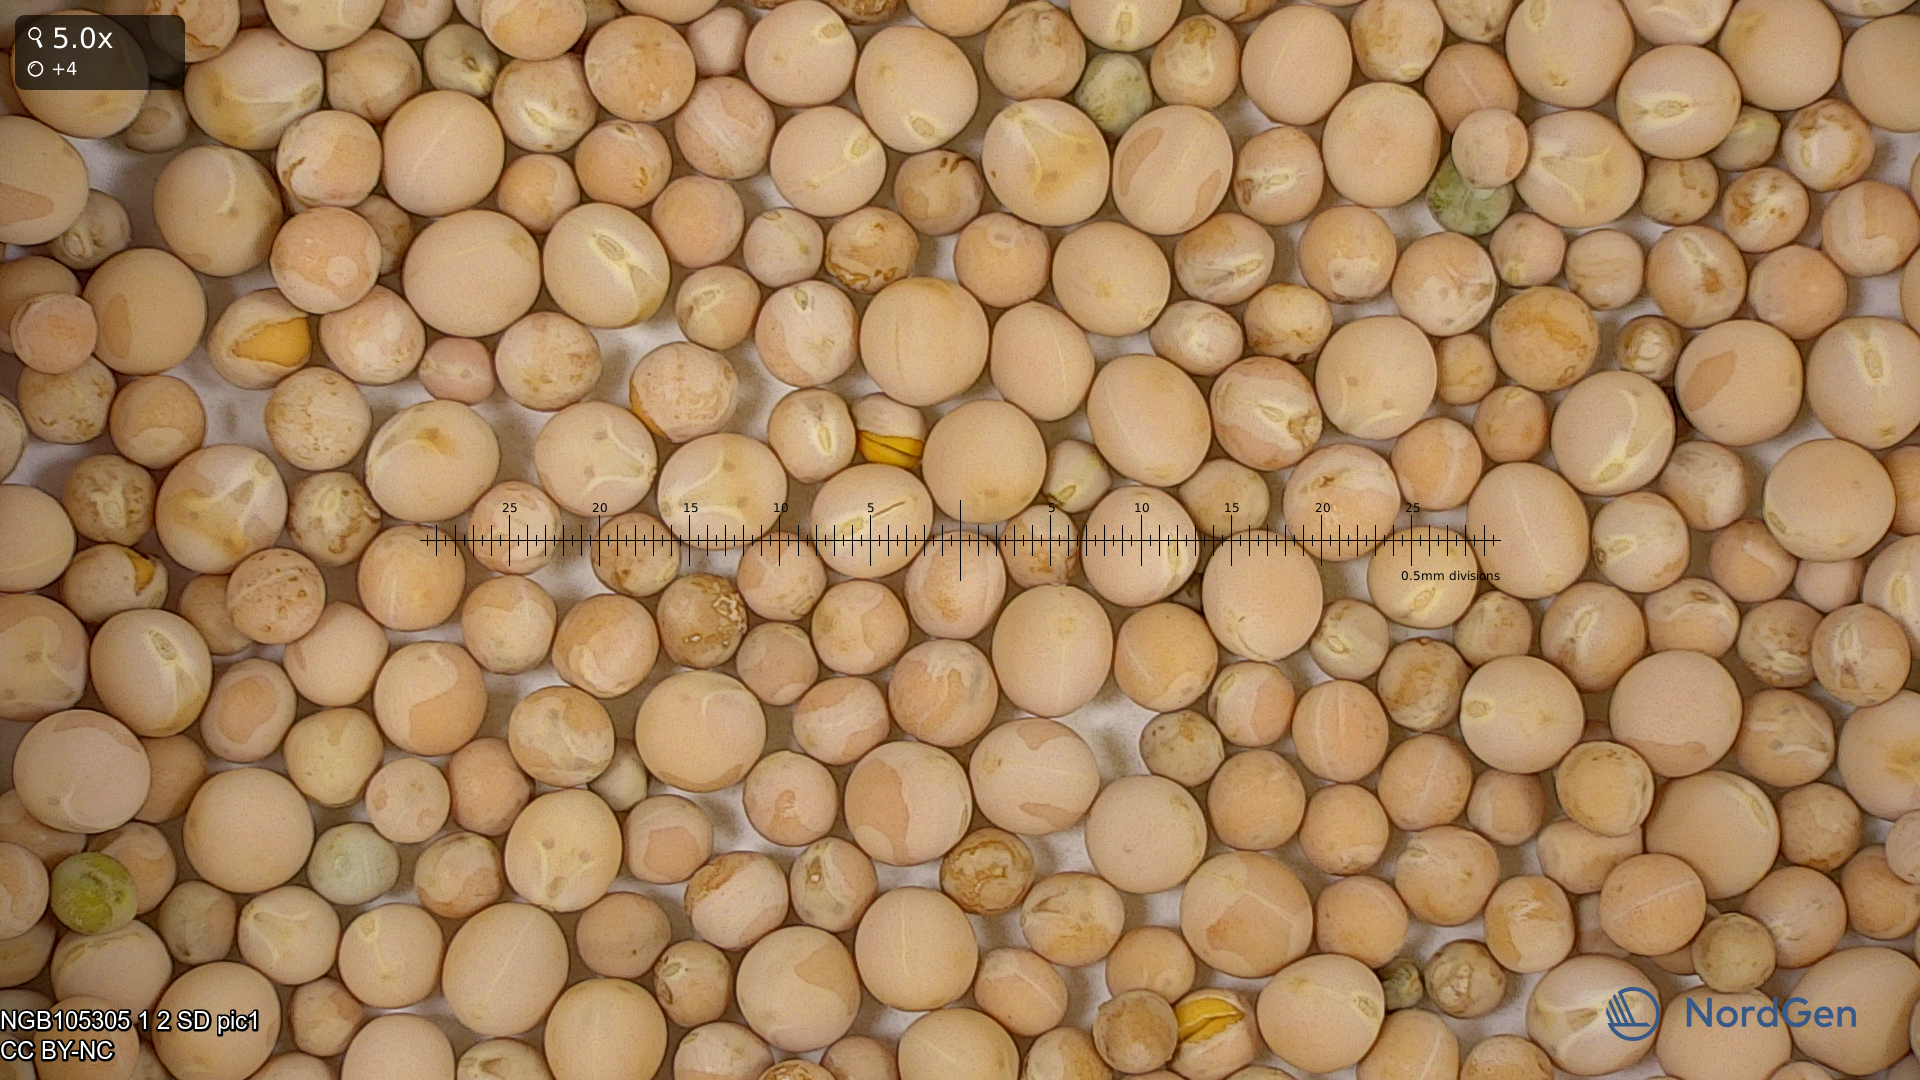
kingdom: Plantae
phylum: Tracheophyta
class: Magnoliopsida
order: Fabales
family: Fabaceae
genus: Lathyrus
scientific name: Lathyrus oleraceus
